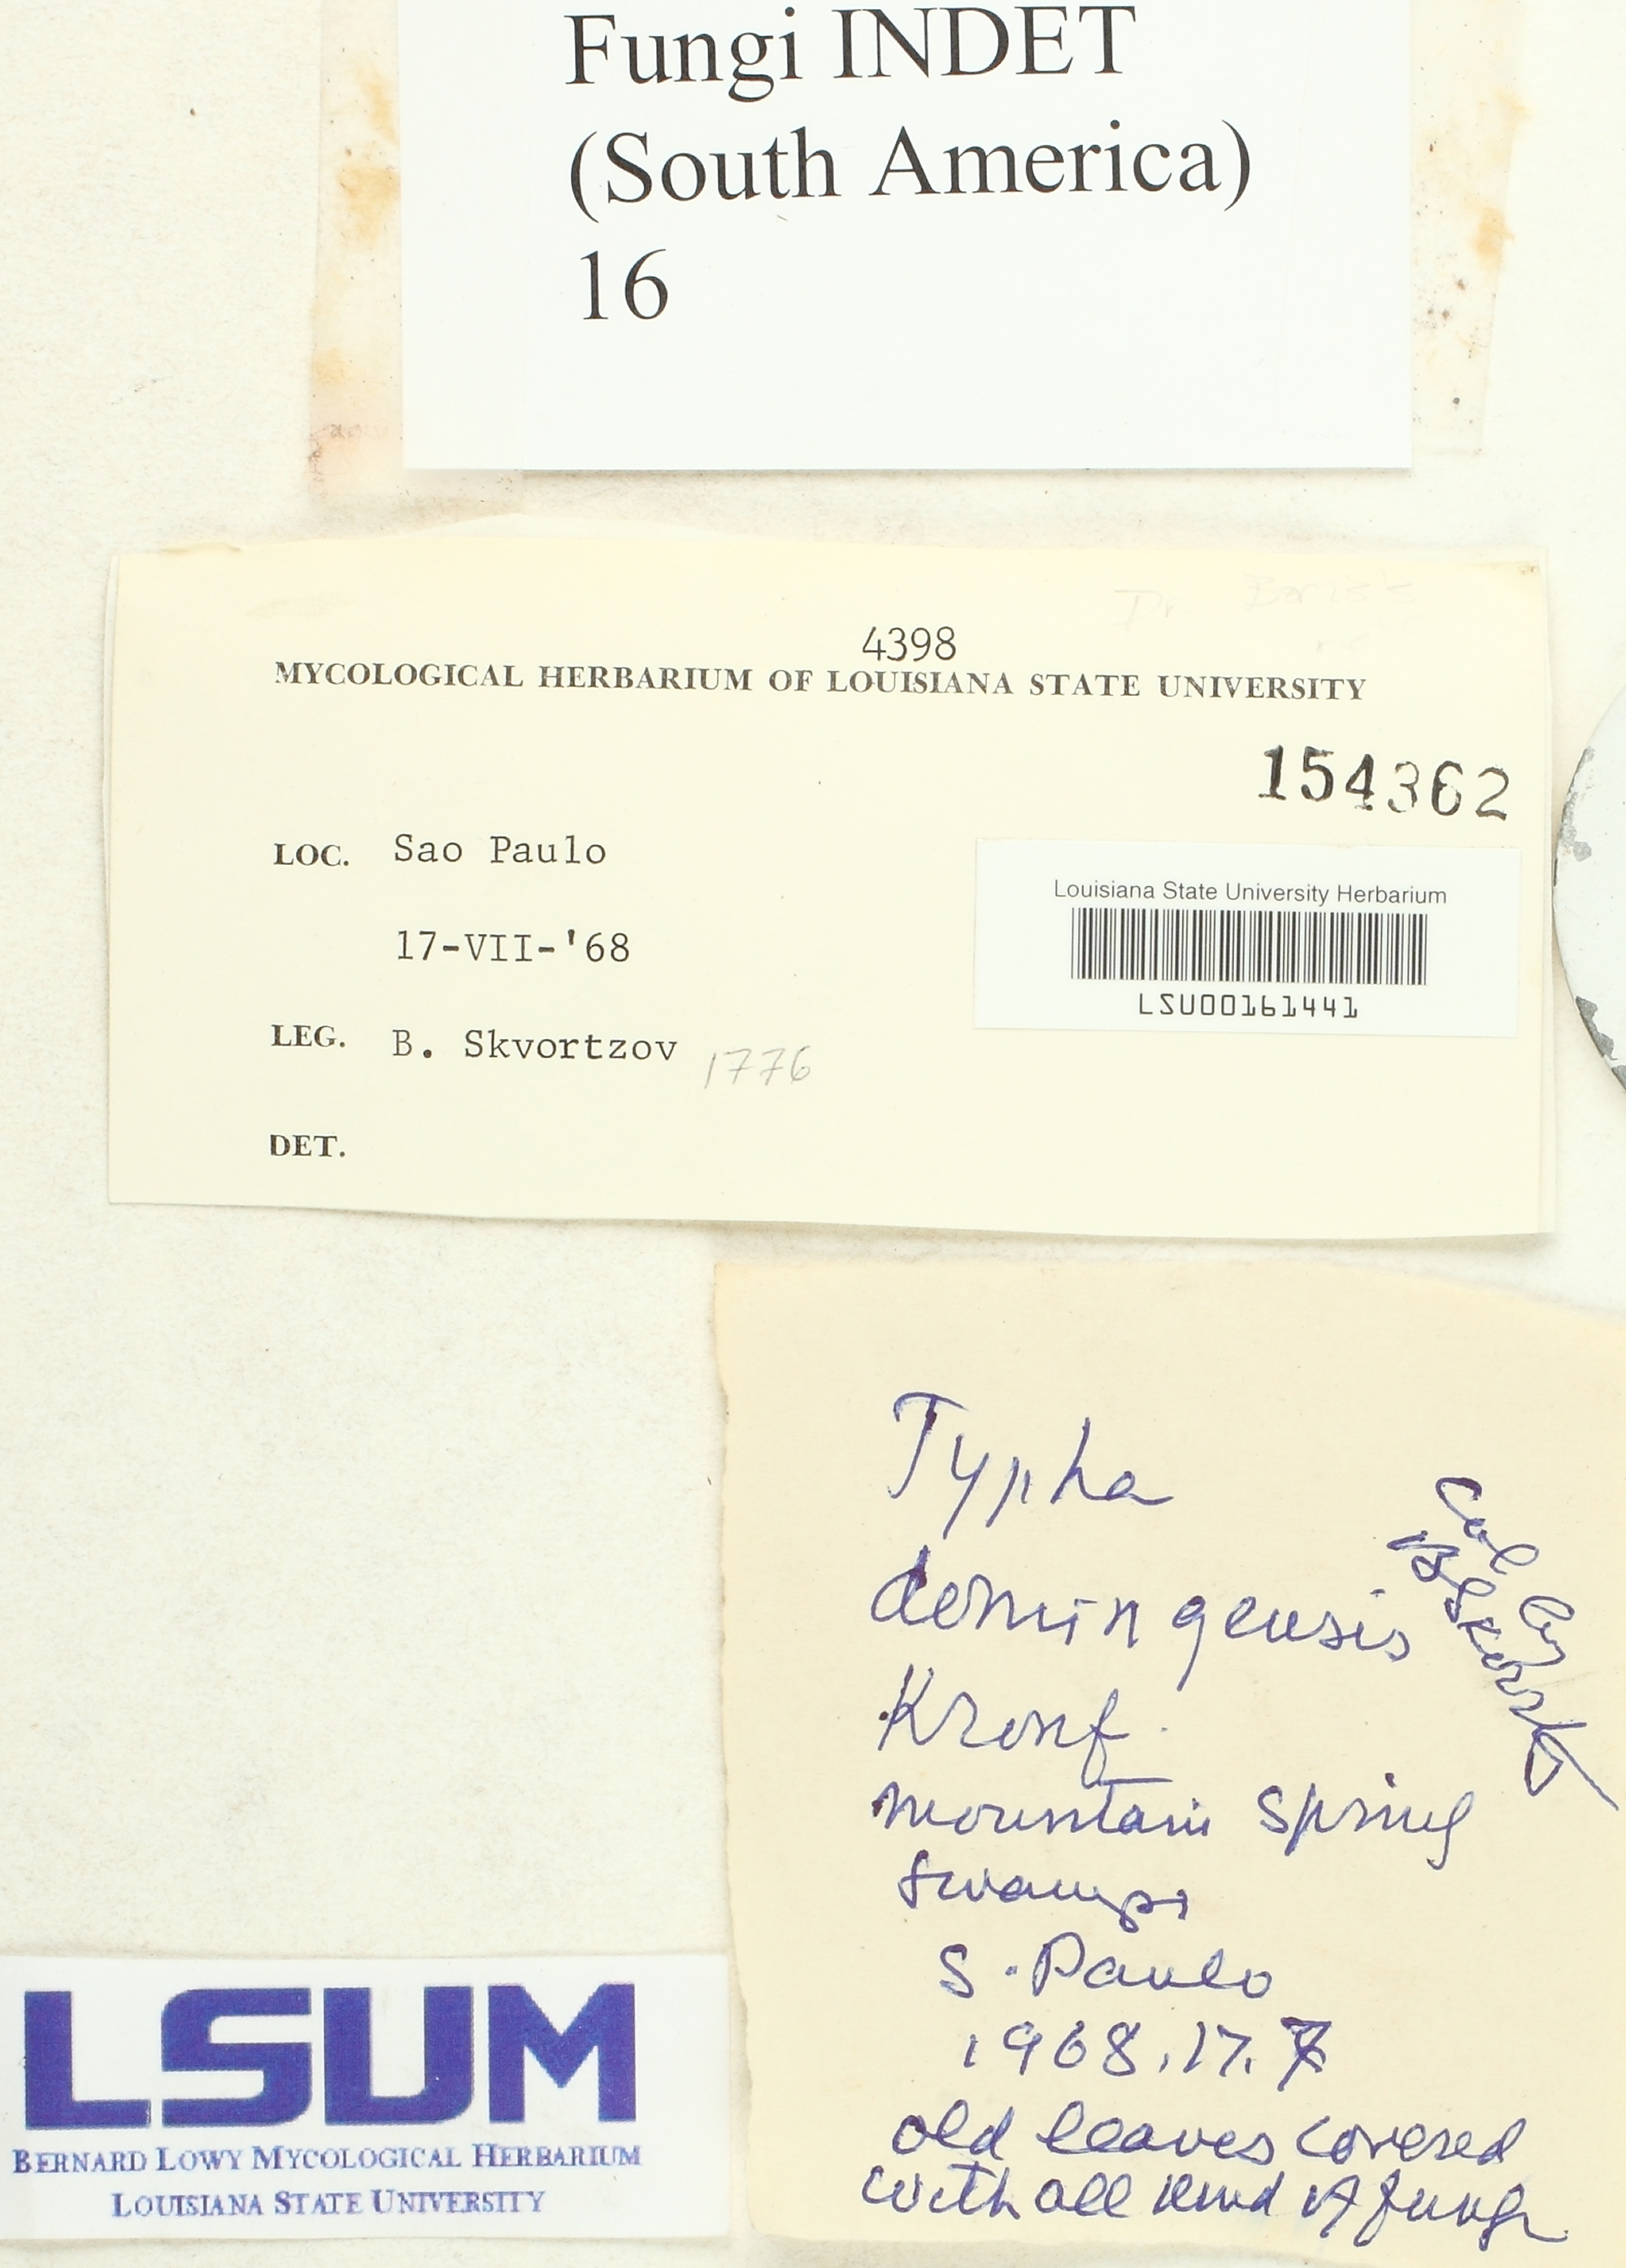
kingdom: Fungi
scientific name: Fungi
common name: Fungi
